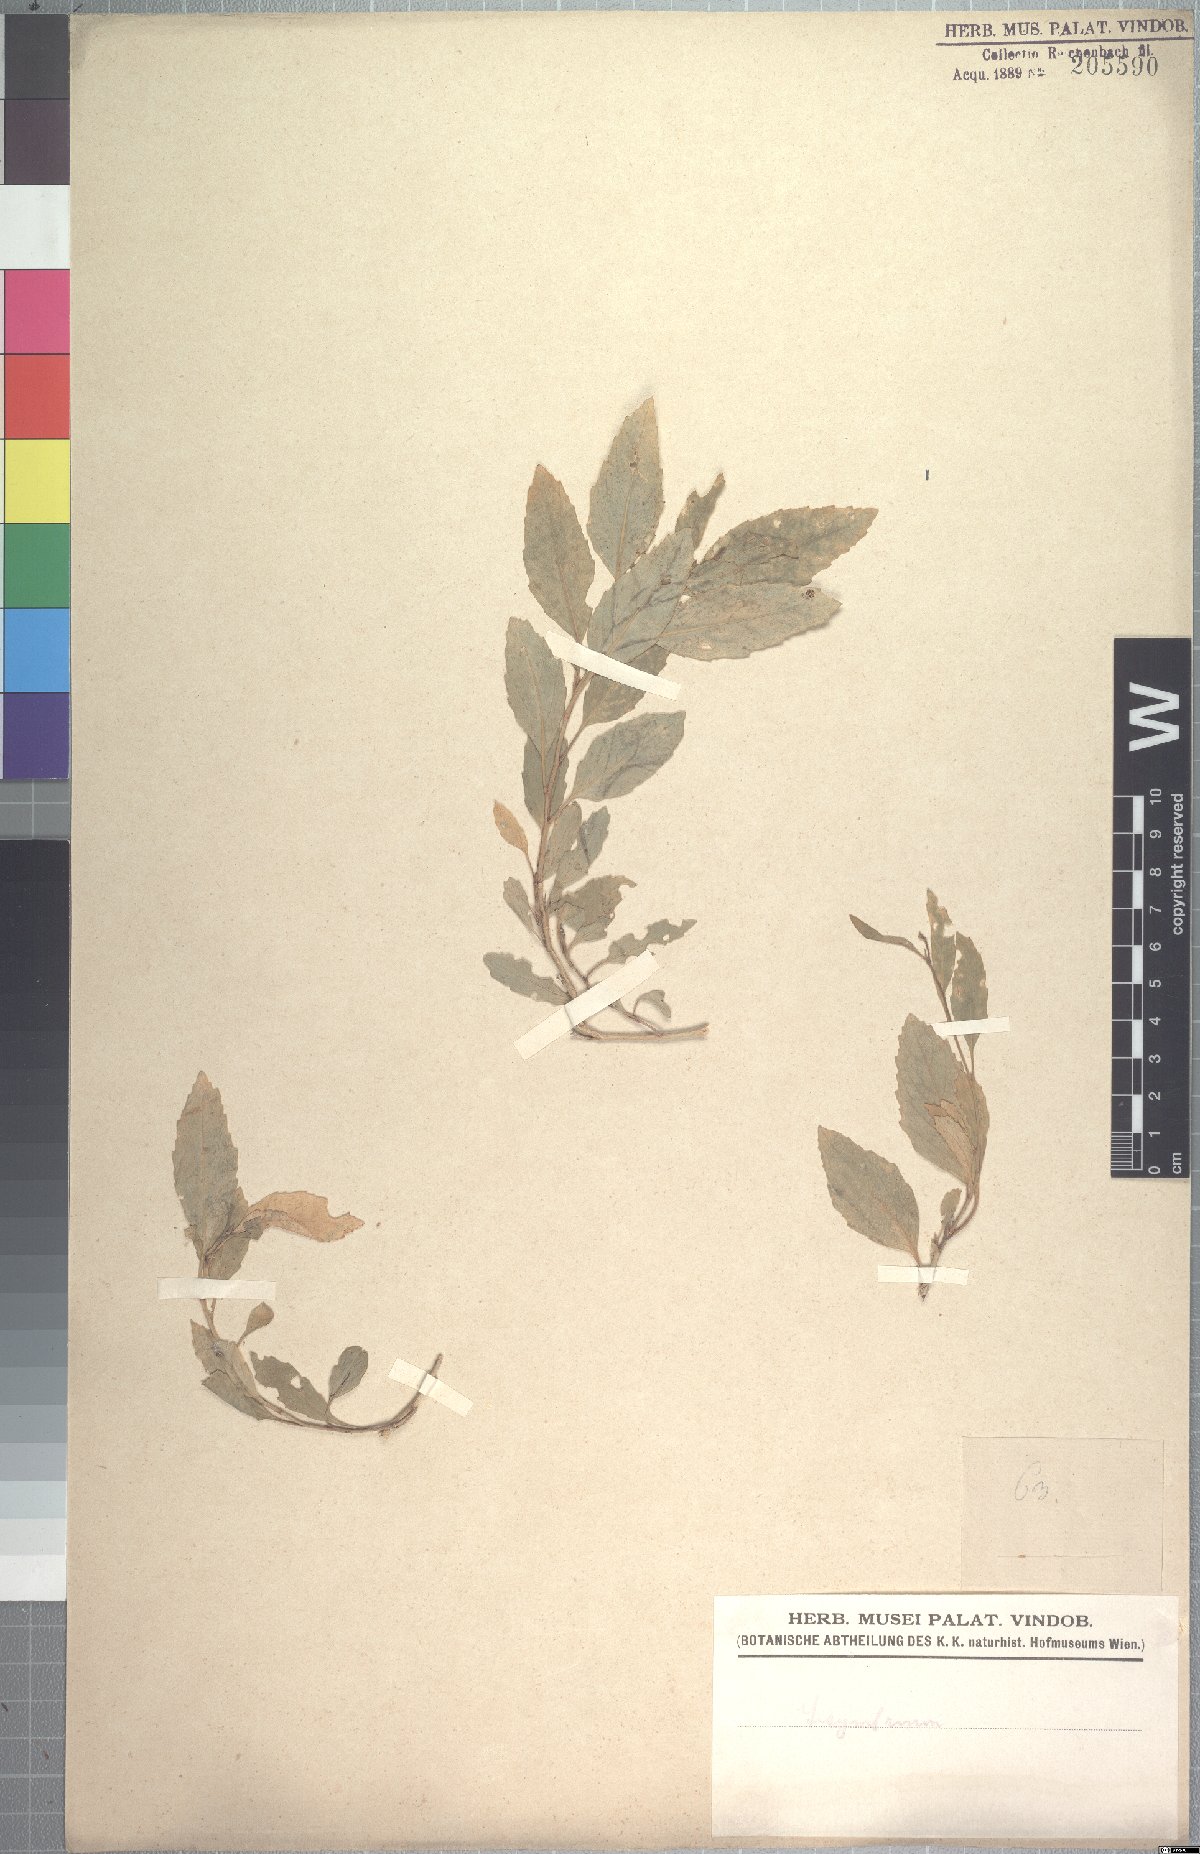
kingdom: Plantae
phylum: Tracheophyta
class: Magnoliopsida
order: Brassicales
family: Brassicaceae
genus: Polypsecadium
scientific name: Polypsecadium litorale
